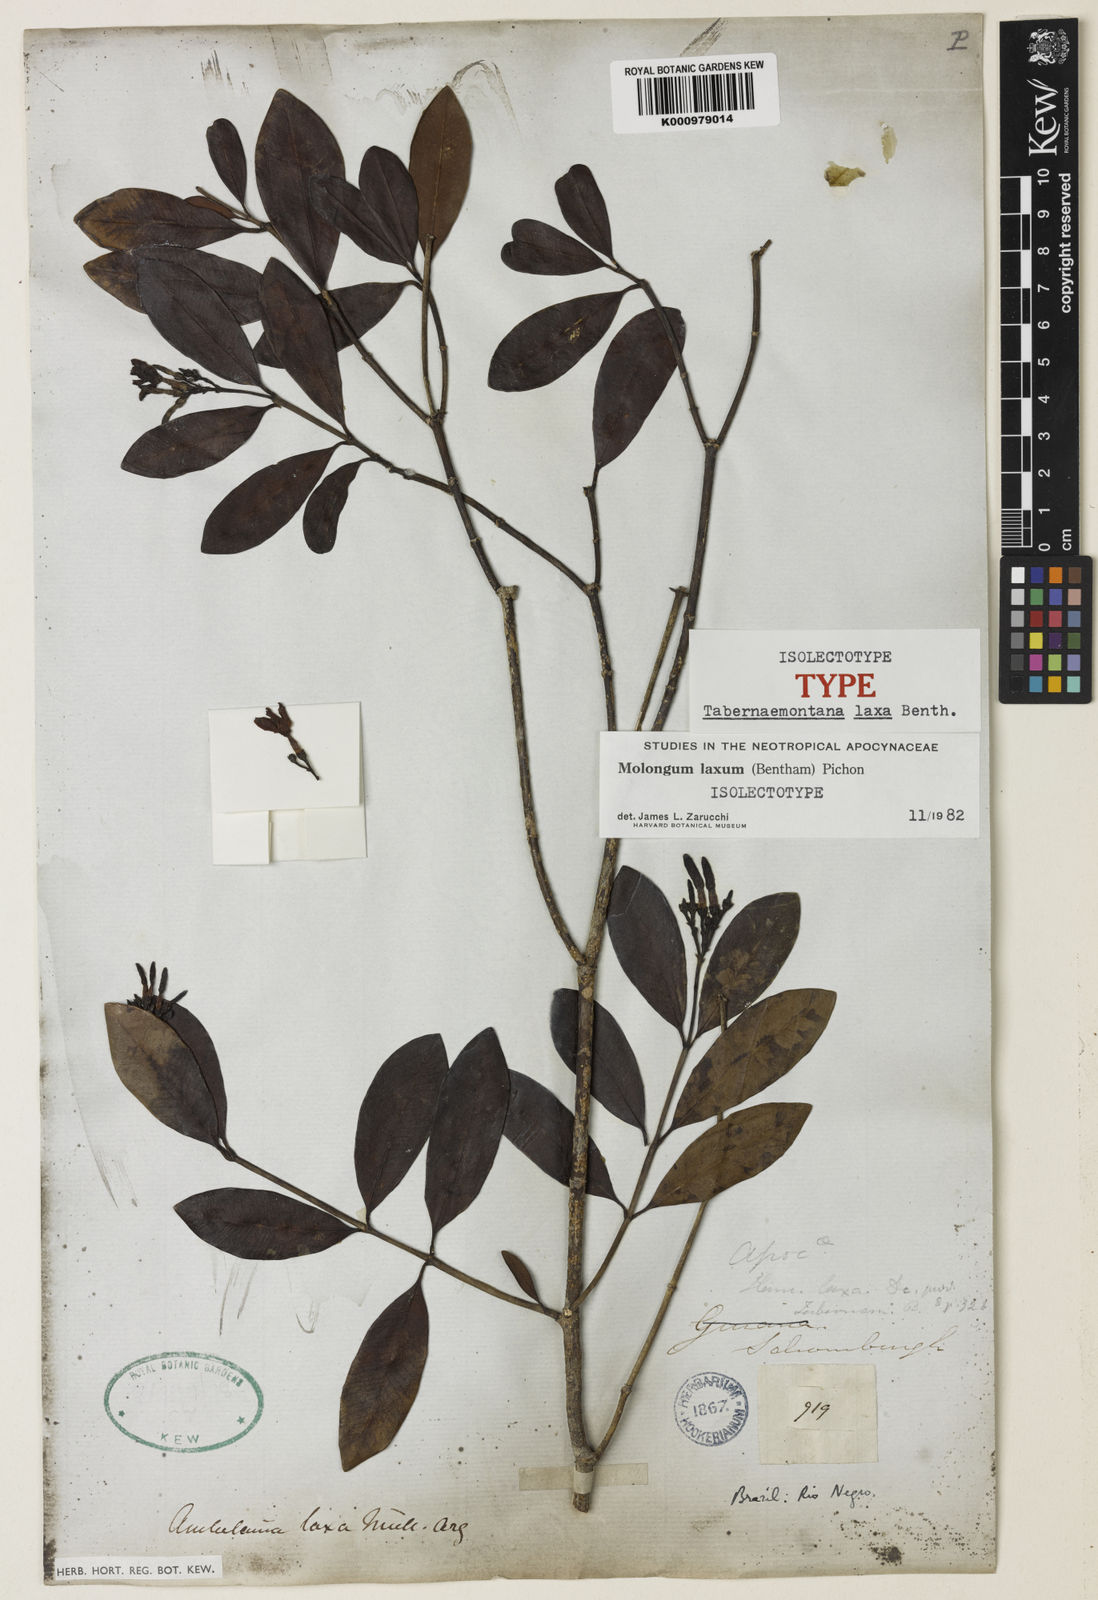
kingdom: Plantae
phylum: Tracheophyta
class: Magnoliopsida
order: Gentianales
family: Apocynaceae
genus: Molongum
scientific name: Molongum laxum
